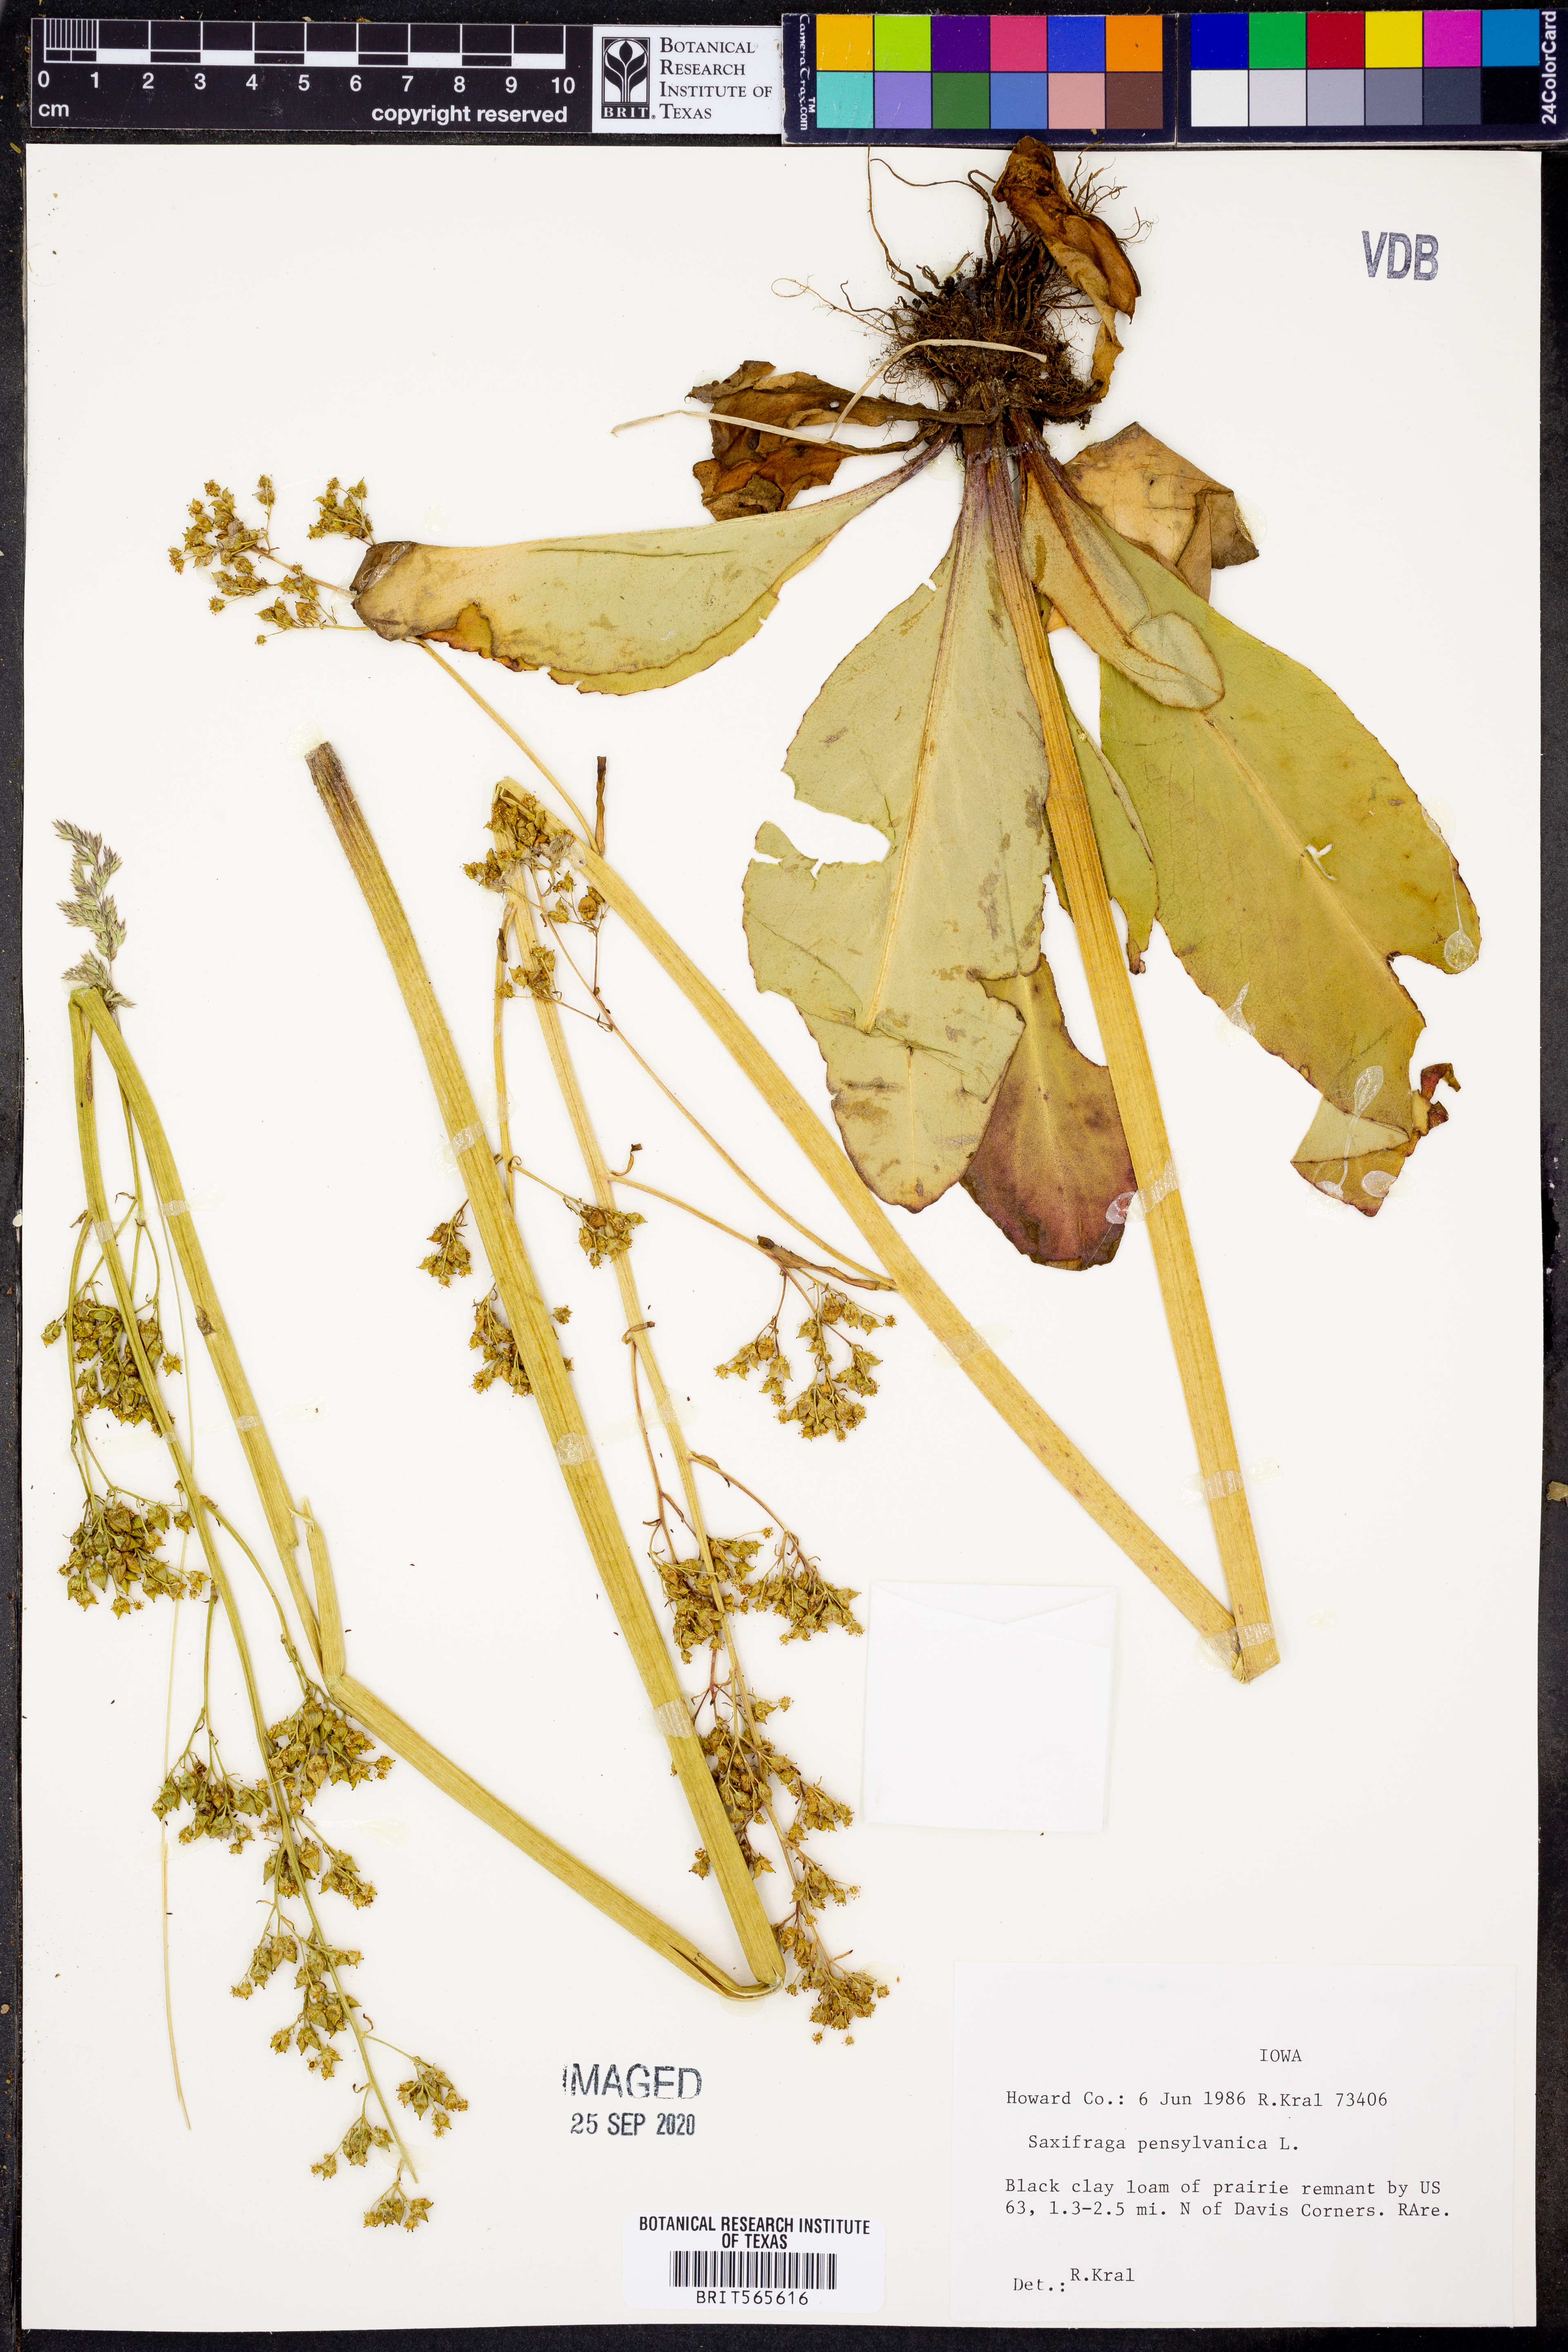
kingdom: Plantae
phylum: Tracheophyta
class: Magnoliopsida
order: Saxifragales
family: Saxifragaceae
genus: Micranthes
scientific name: Micranthes pensylvanica
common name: Marsh saxifrage
